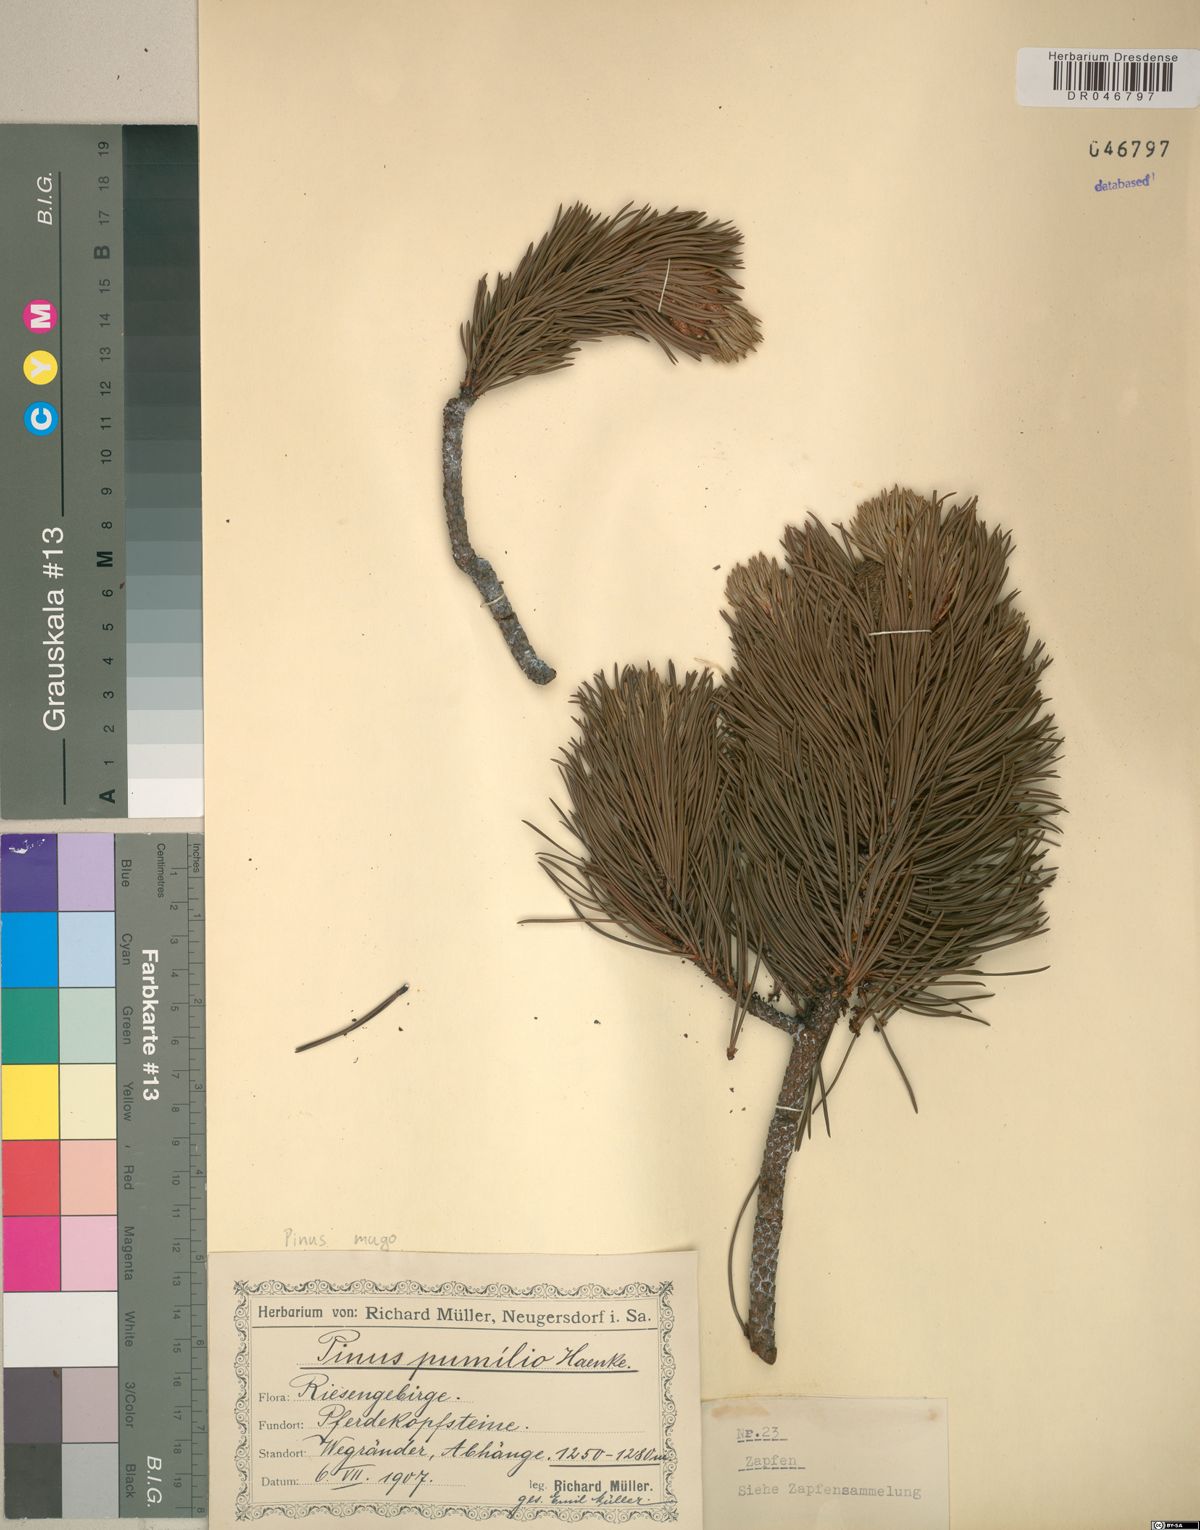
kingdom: Plantae
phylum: Tracheophyta
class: Pinopsida
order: Pinales
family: Pinaceae
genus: Pinus
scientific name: Pinus mugo
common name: Mugo pine
